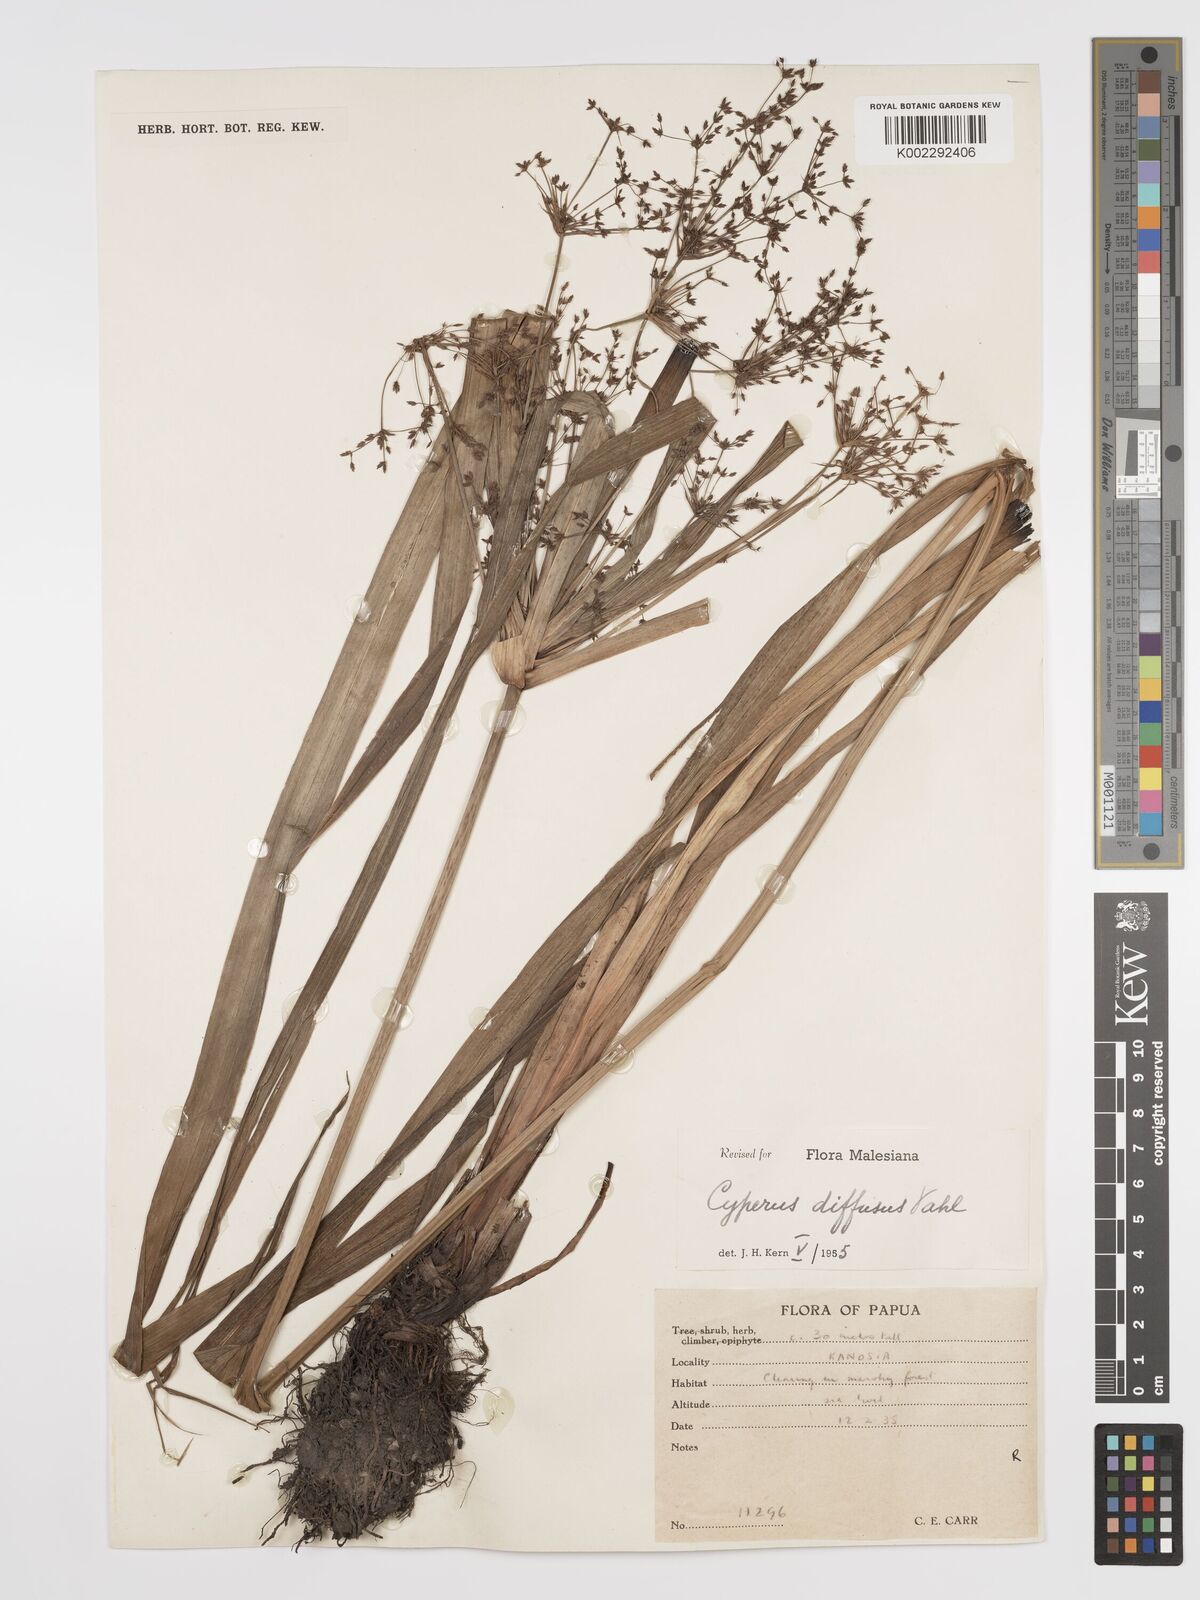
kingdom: Plantae
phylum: Tracheophyta
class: Liliopsida
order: Poales
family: Cyperaceae
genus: Cyperus
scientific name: Cyperus diffusus
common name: Dwarf umbrella grass
